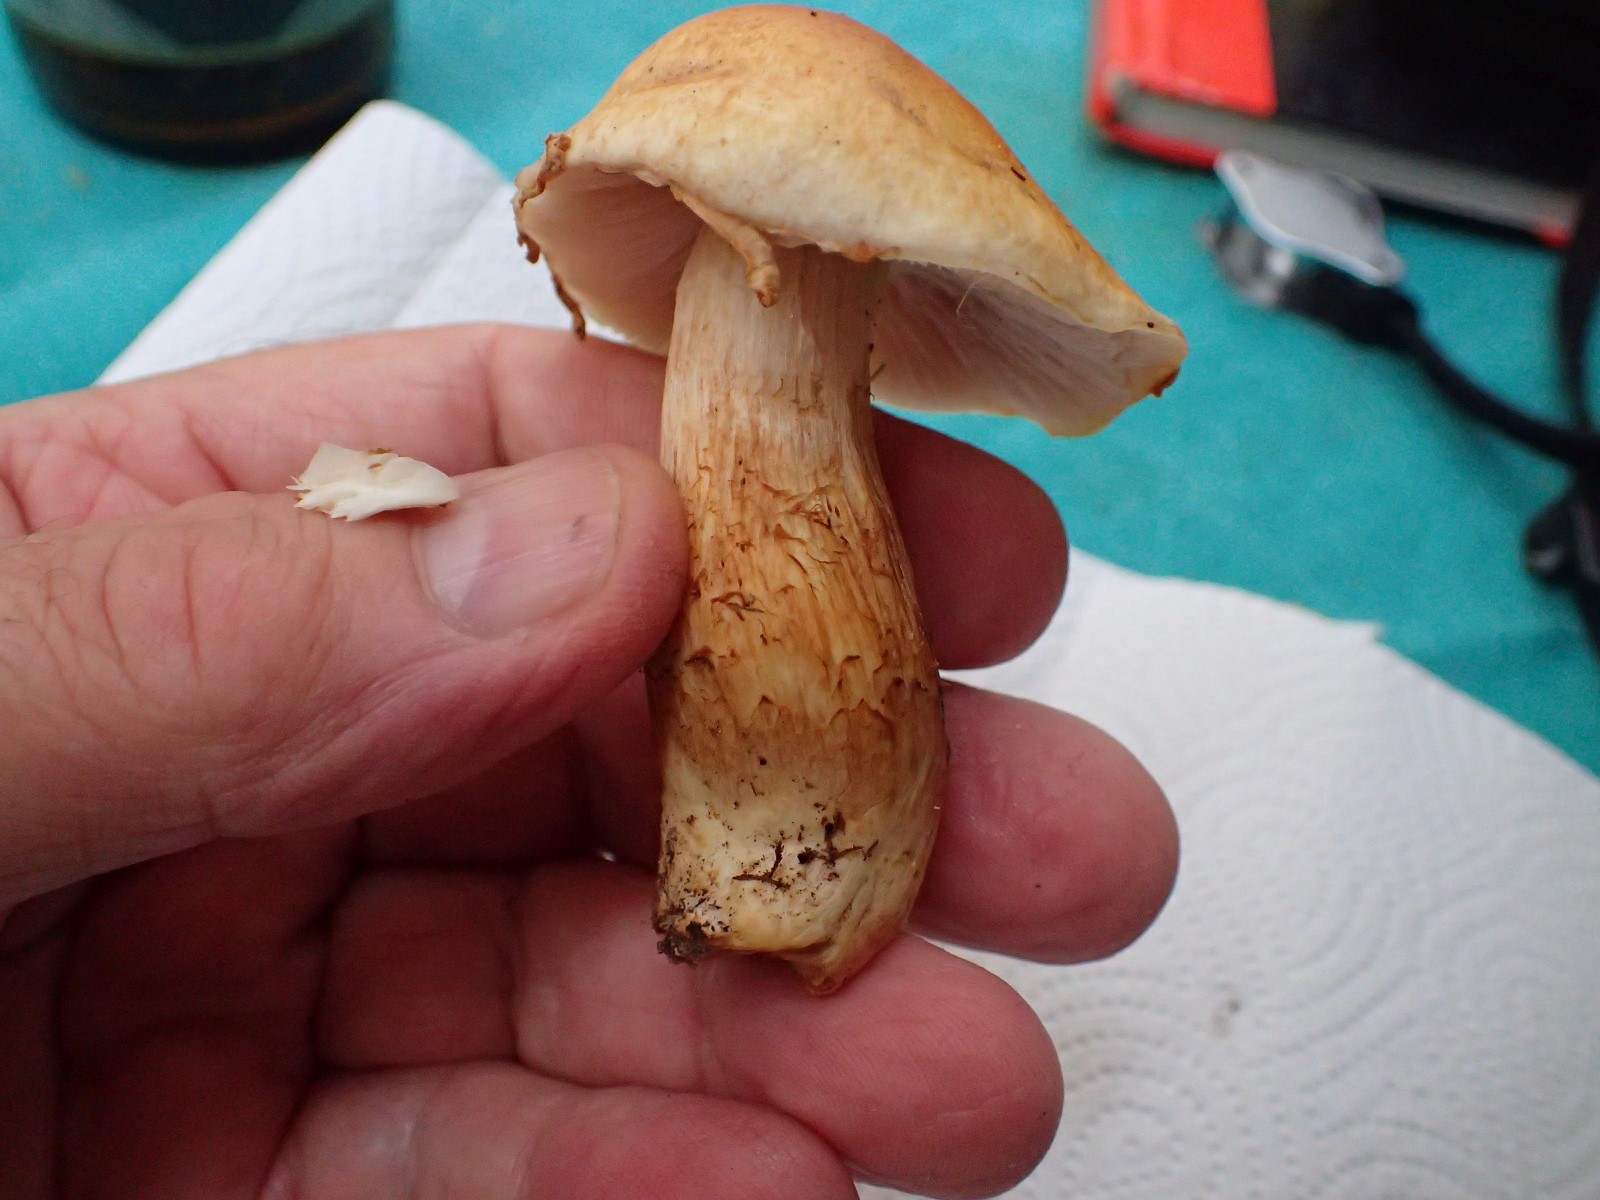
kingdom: Fungi
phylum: Basidiomycota
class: Agaricomycetes
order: Agaricales
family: Cortinariaceae
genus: Cortinarius
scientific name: Cortinarius
